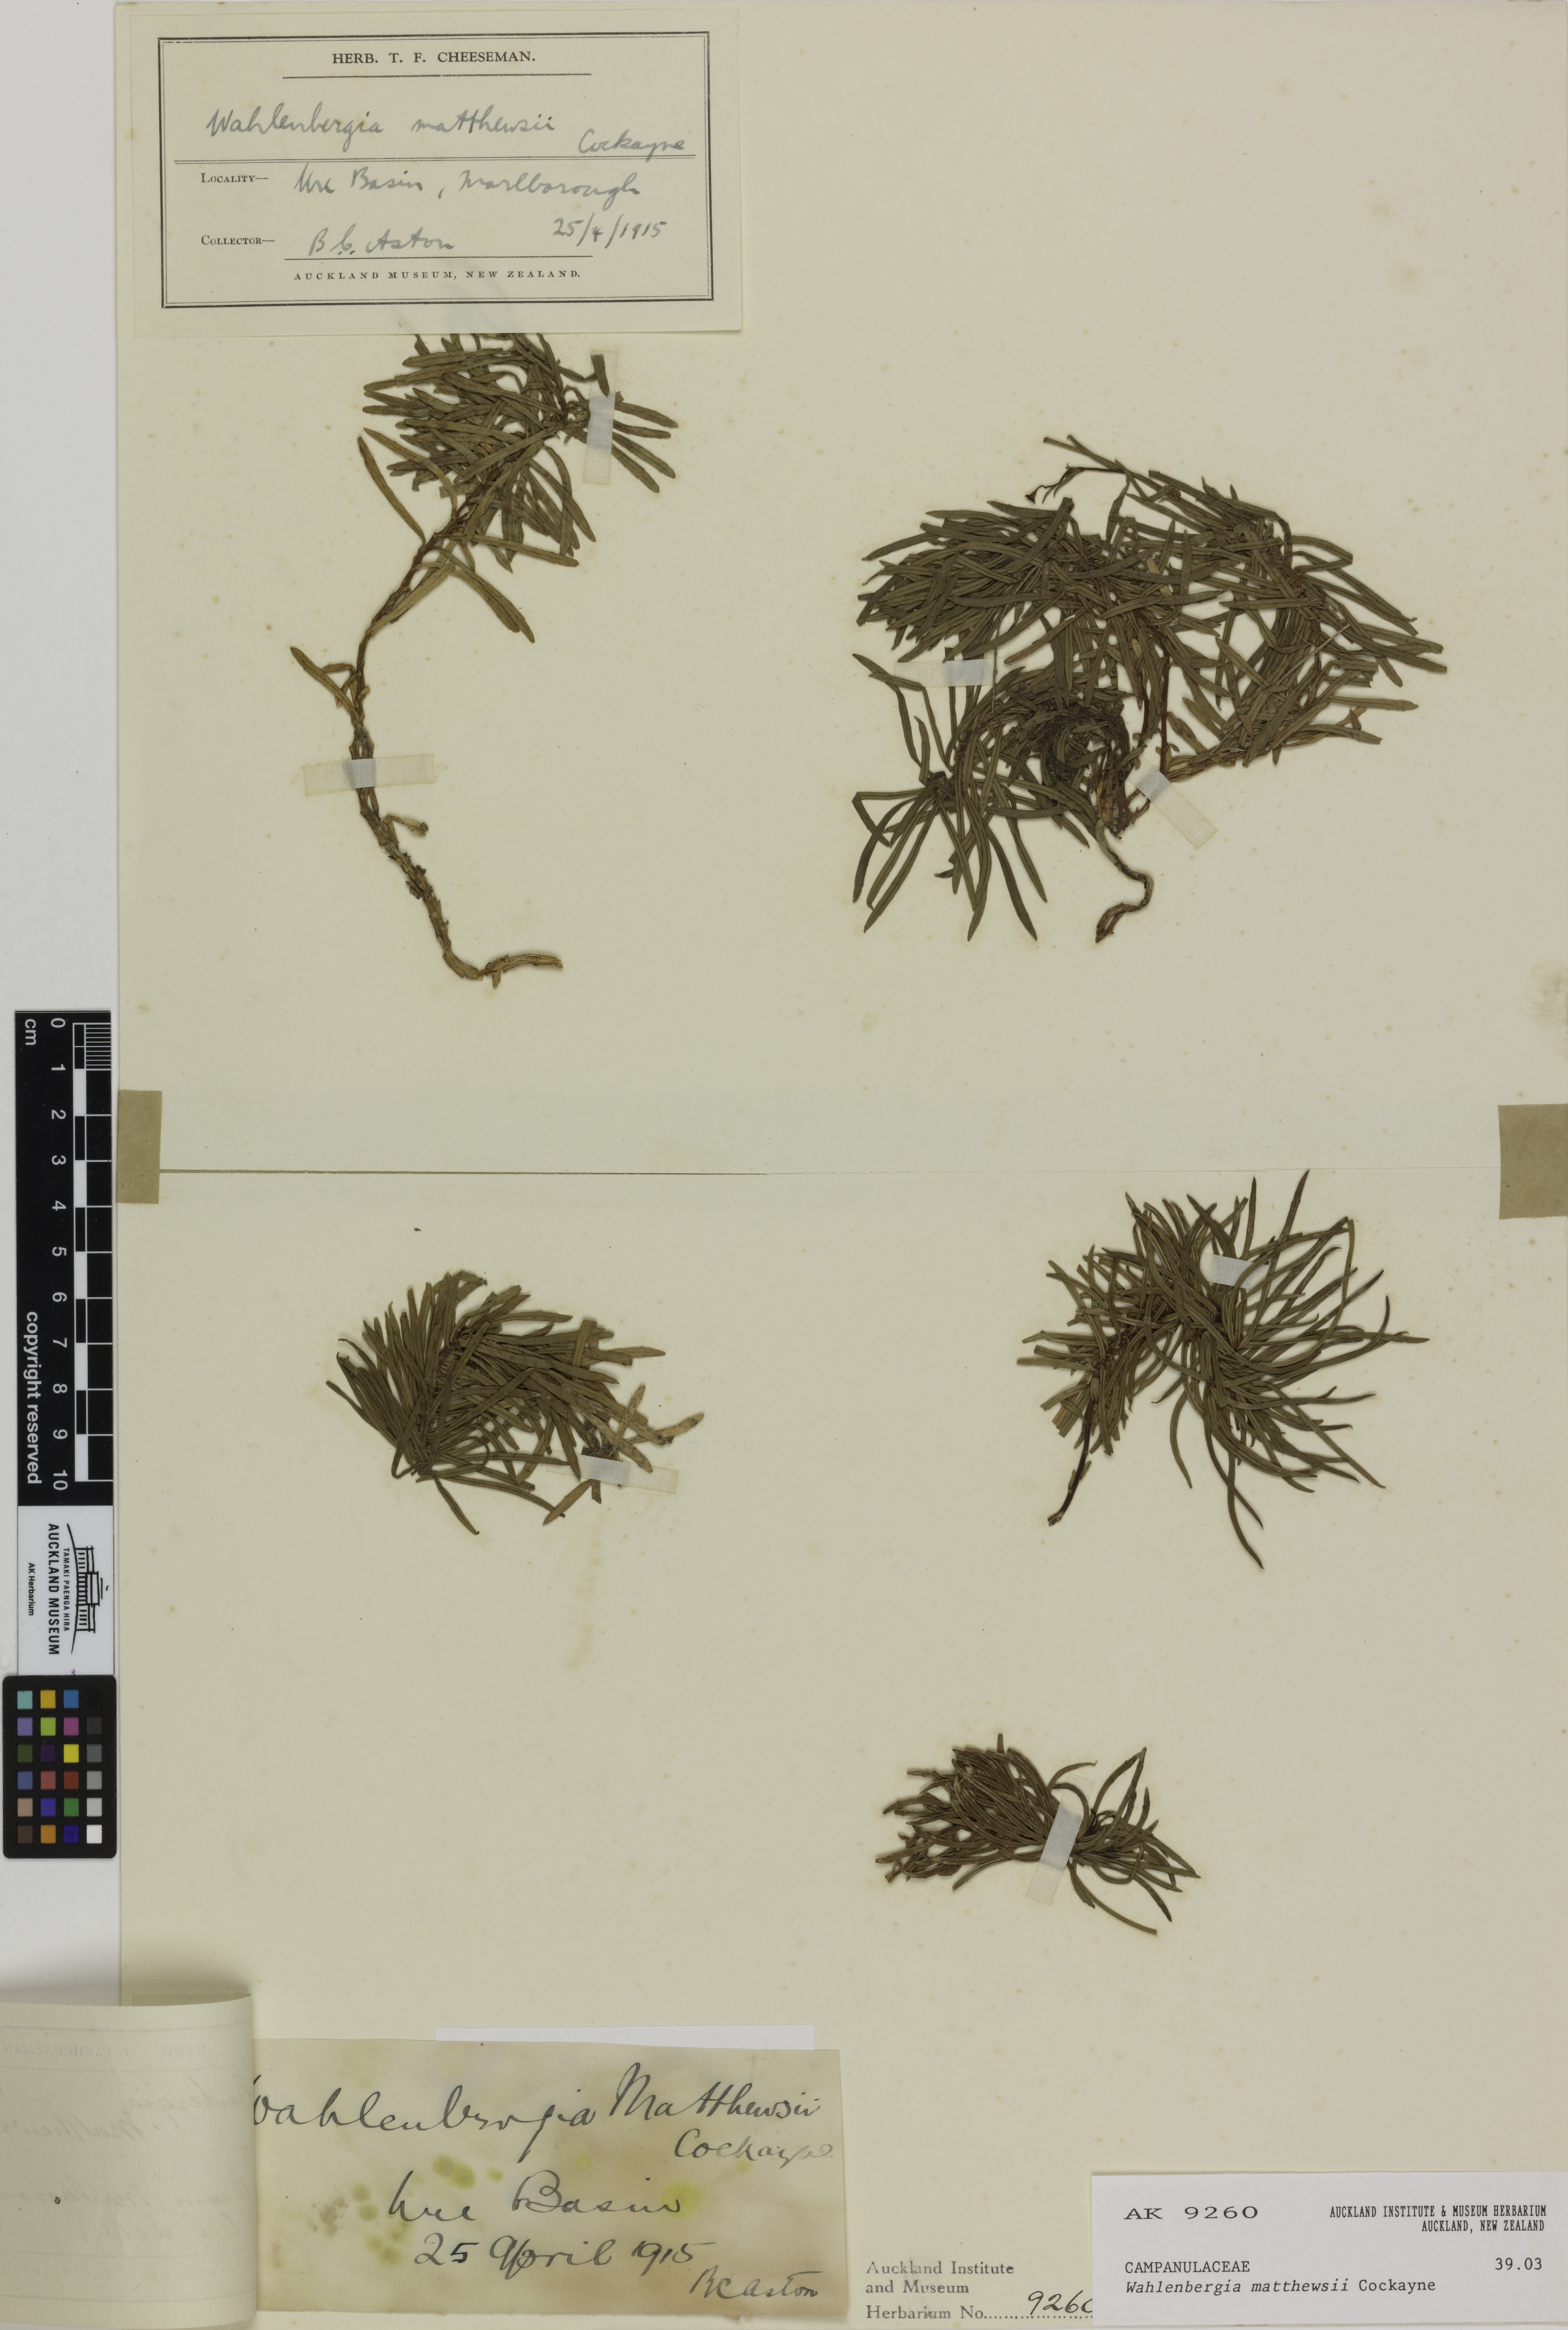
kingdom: Plantae
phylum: Tracheophyta
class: Magnoliopsida
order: Asterales
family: Campanulaceae
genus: Wahlenbergia
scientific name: Wahlenbergia matthewsii
